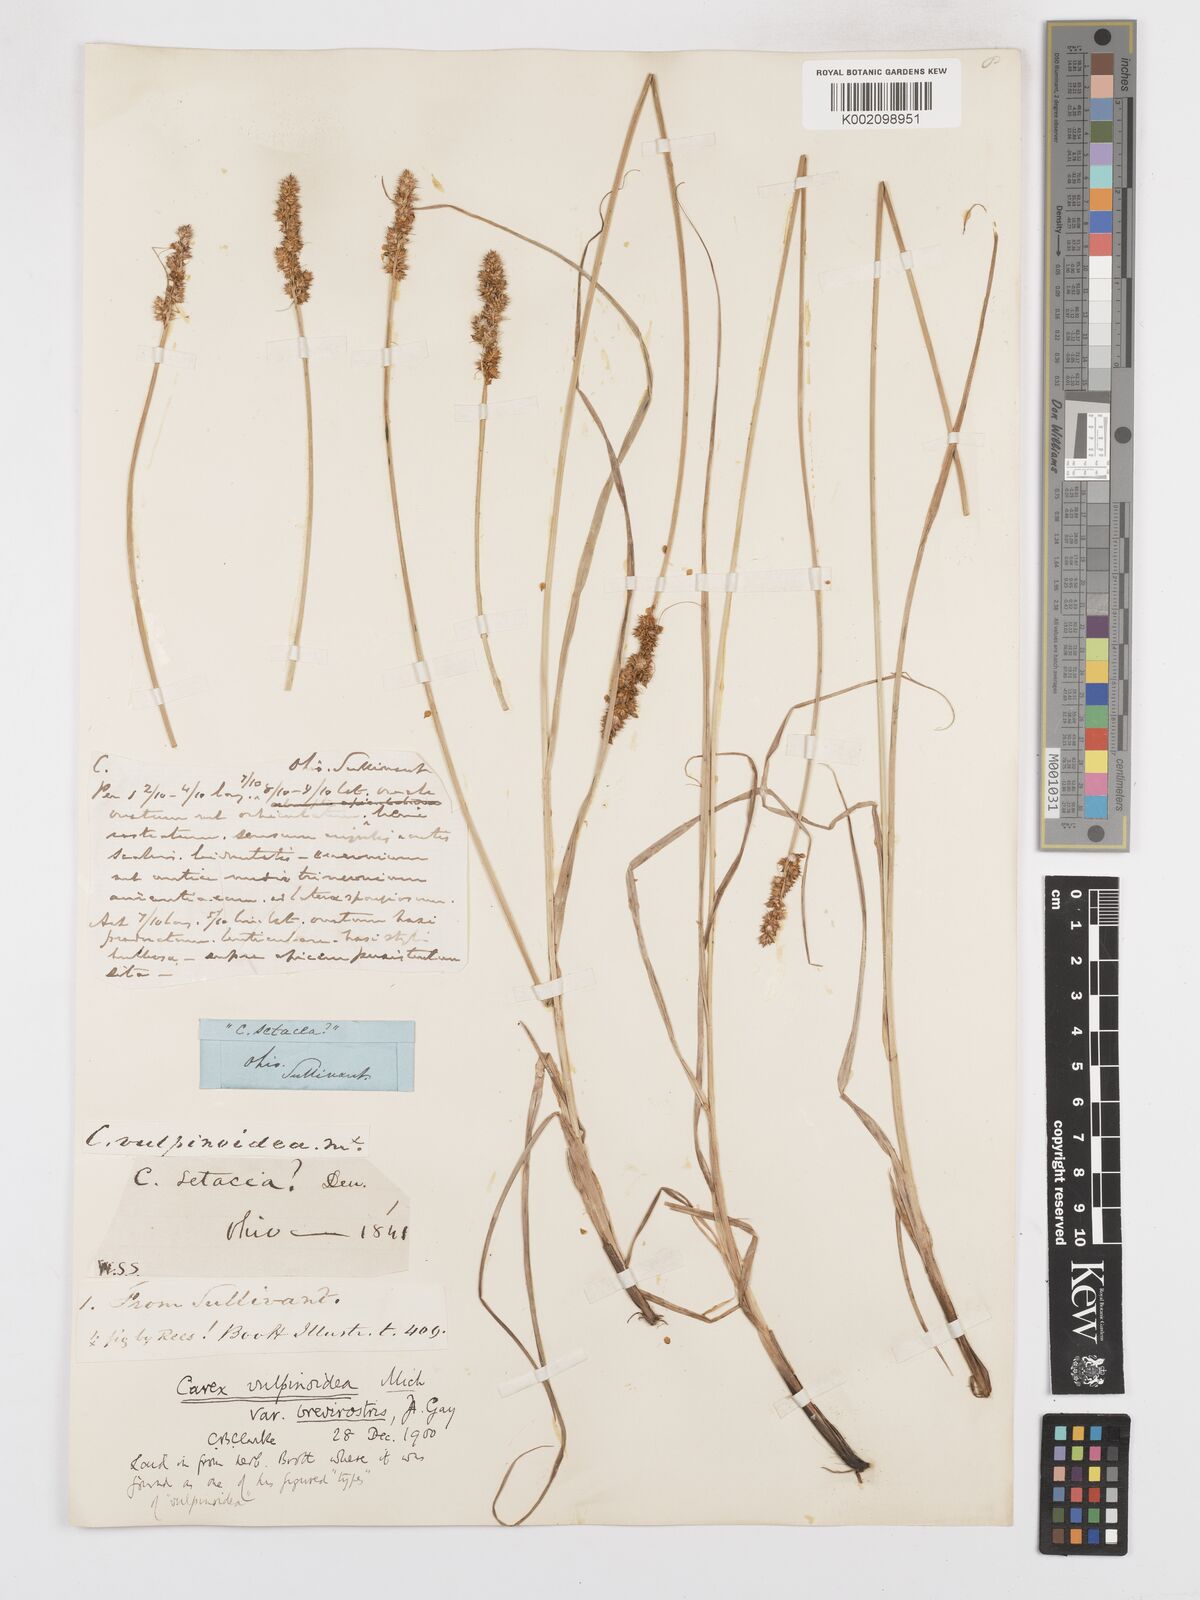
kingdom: Plantae
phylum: Tracheophyta
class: Liliopsida
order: Poales
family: Cyperaceae
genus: Carex
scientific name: Carex vulpinoidea
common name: American fox-sedge
